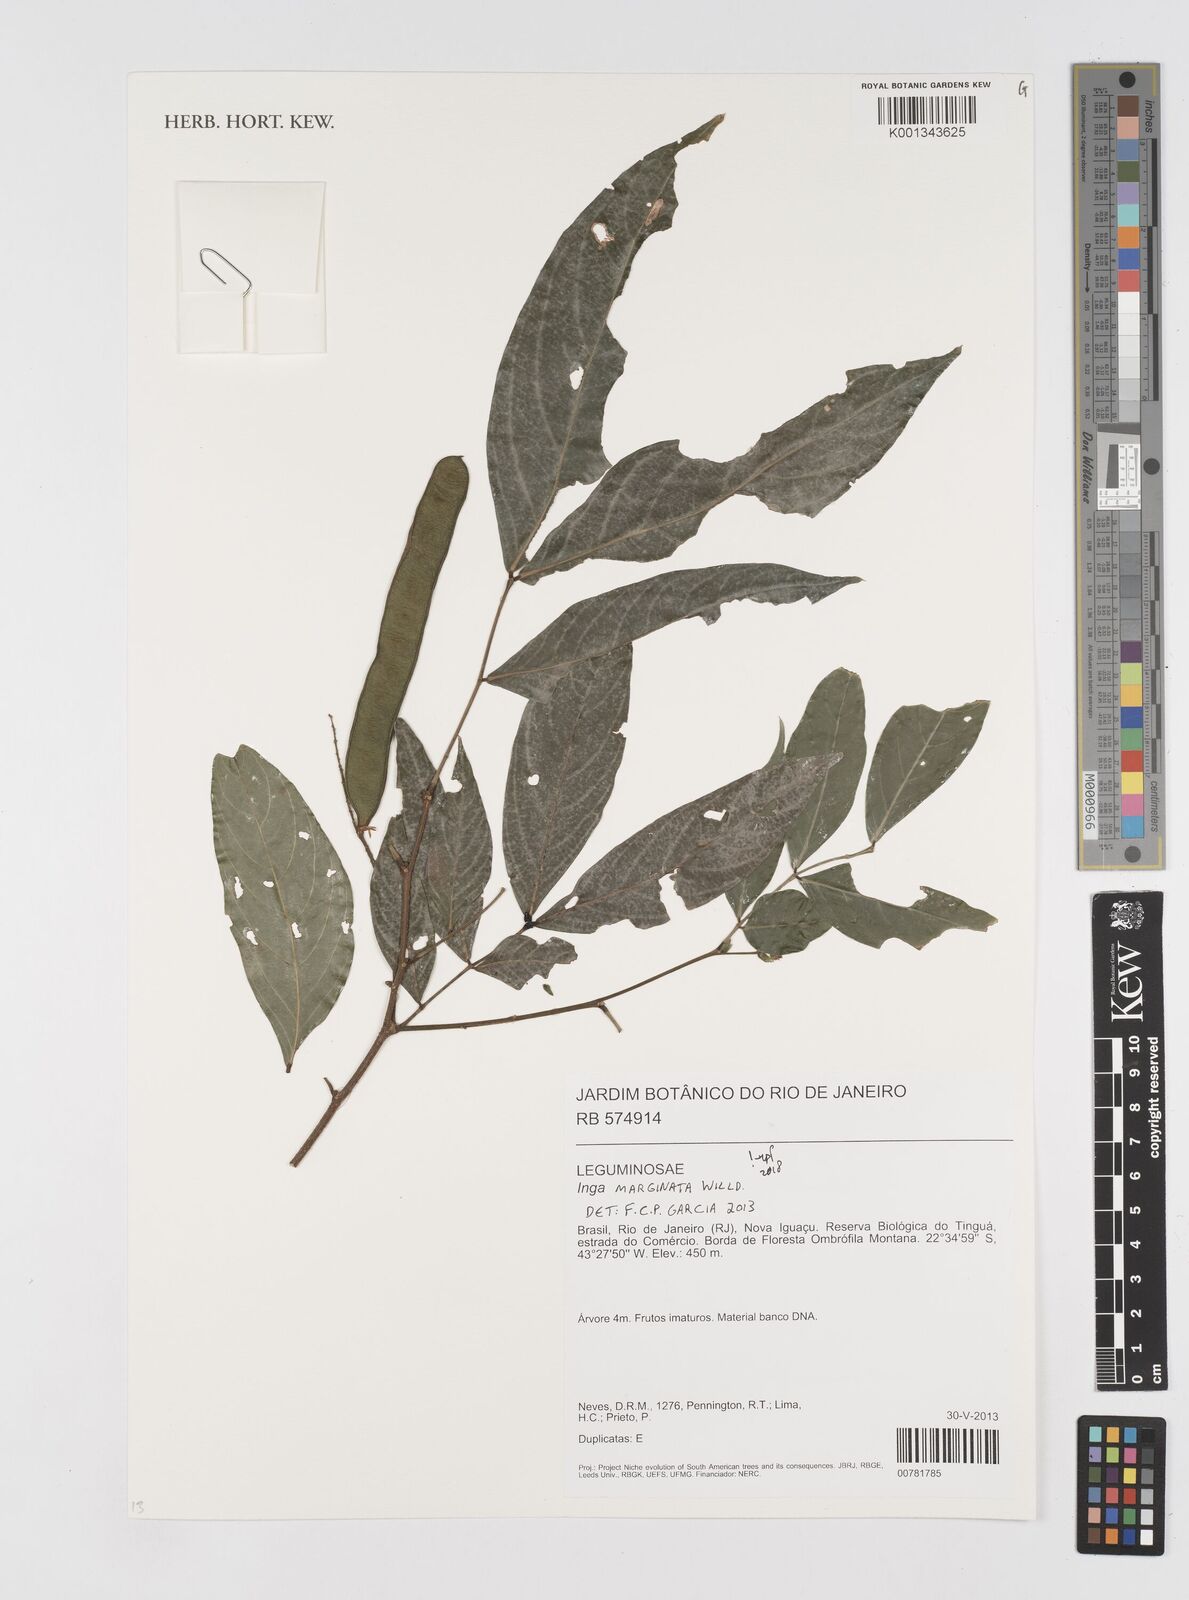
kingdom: Plantae
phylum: Tracheophyta
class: Magnoliopsida
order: Fabales
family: Fabaceae
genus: Inga
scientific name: Inga marginata
